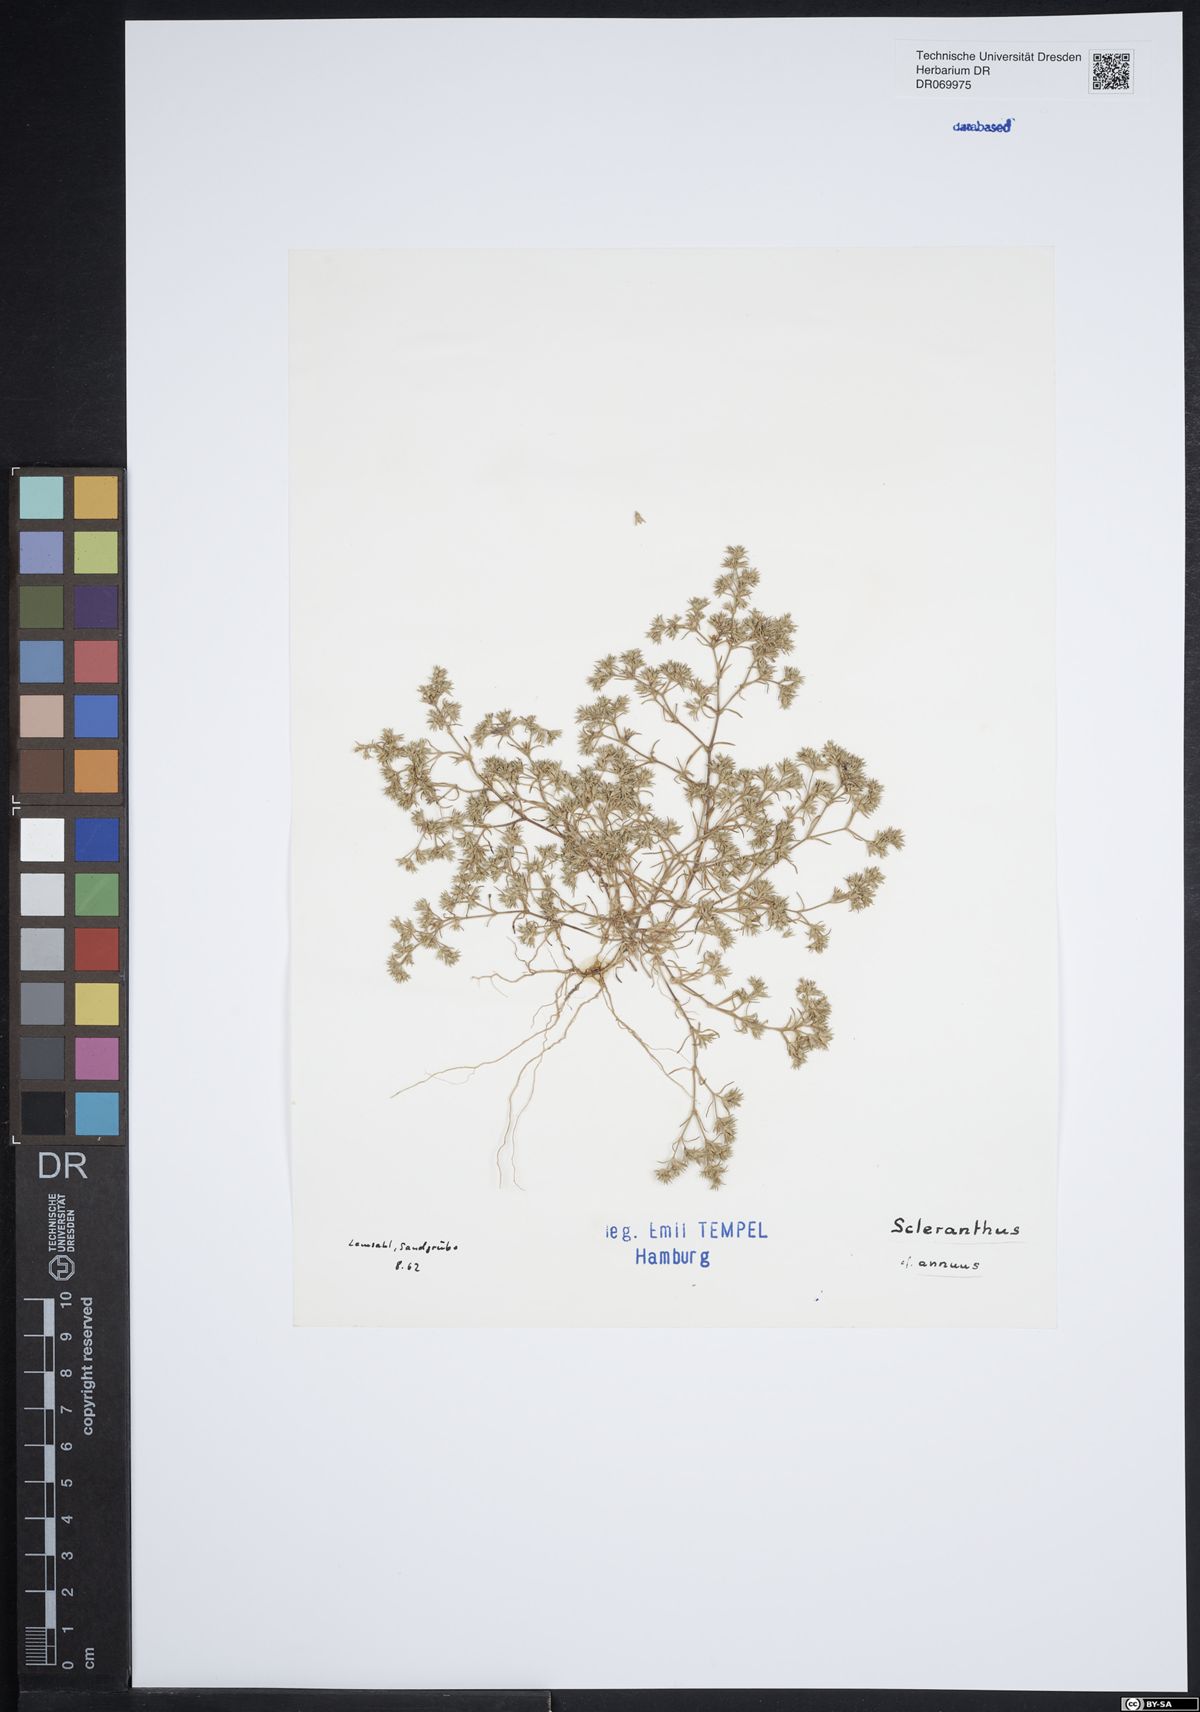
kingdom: Plantae
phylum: Tracheophyta
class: Magnoliopsida
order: Caryophyllales
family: Caryophyllaceae
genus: Scleranthus
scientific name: Scleranthus annuus
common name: Annual knawel
